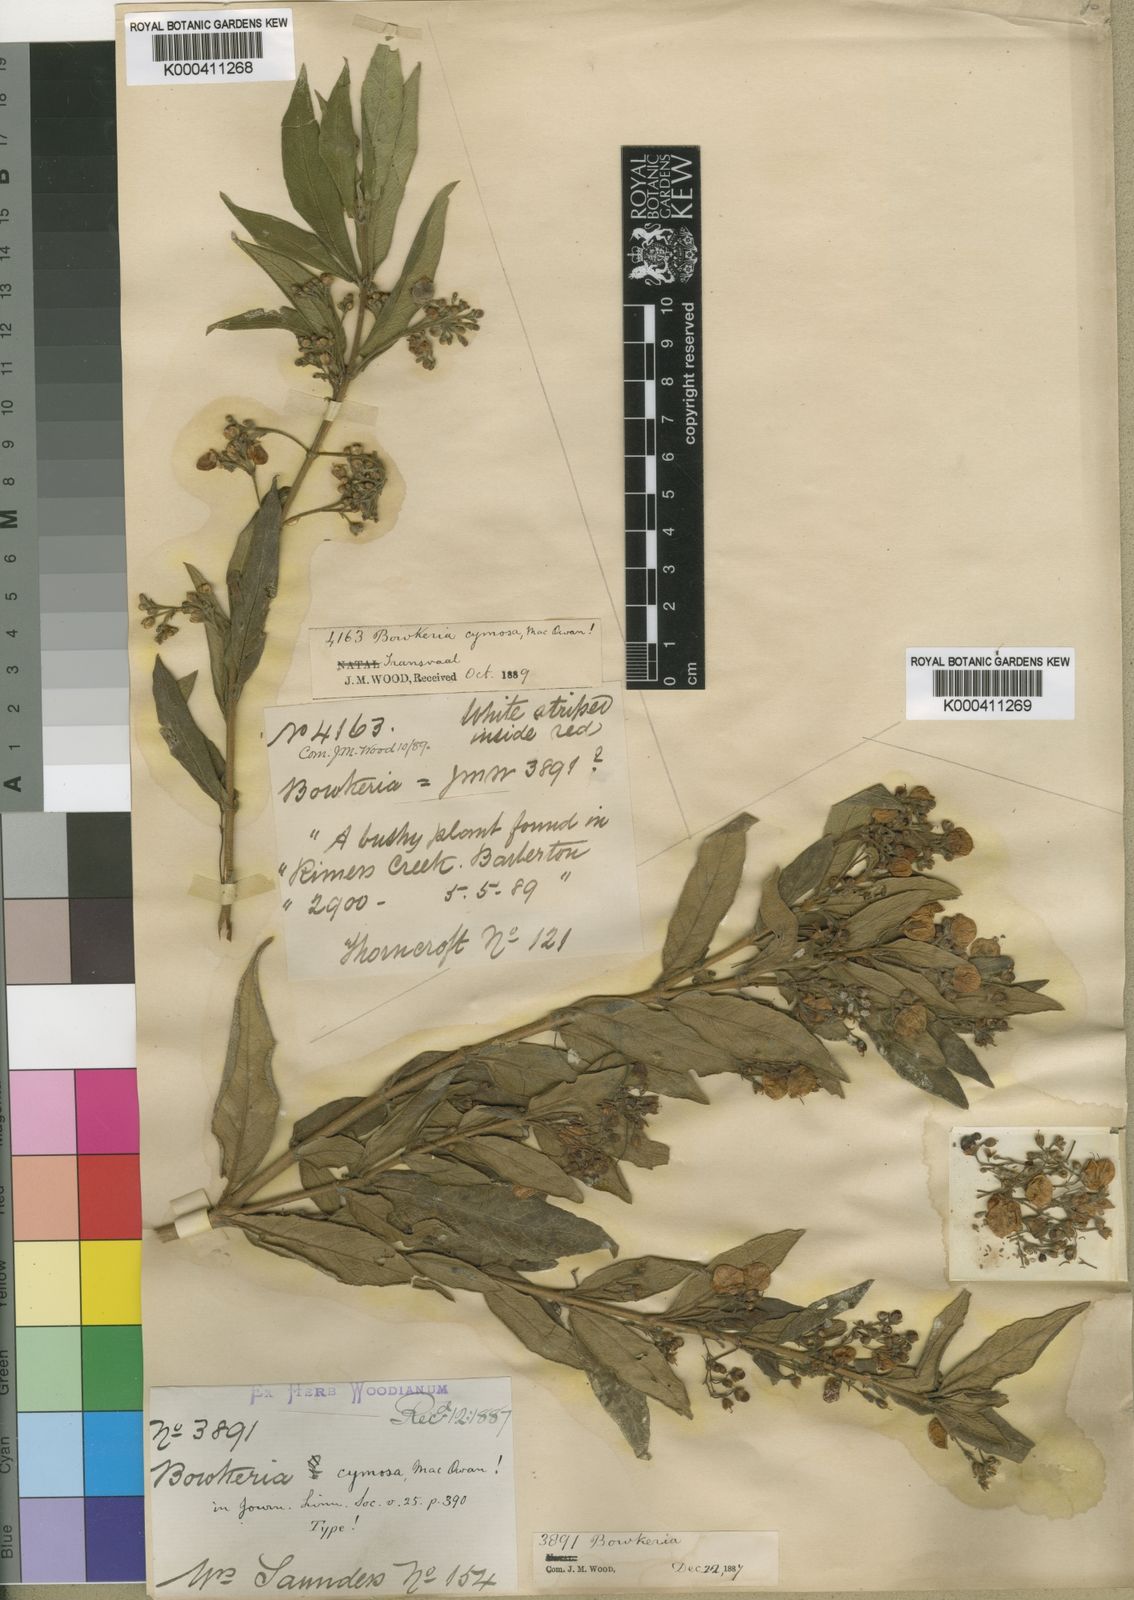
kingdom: Plantae
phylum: Tracheophyta
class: Magnoliopsida
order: Lamiales
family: Stilbaceae
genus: Bowkeria
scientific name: Bowkeria cymosa
